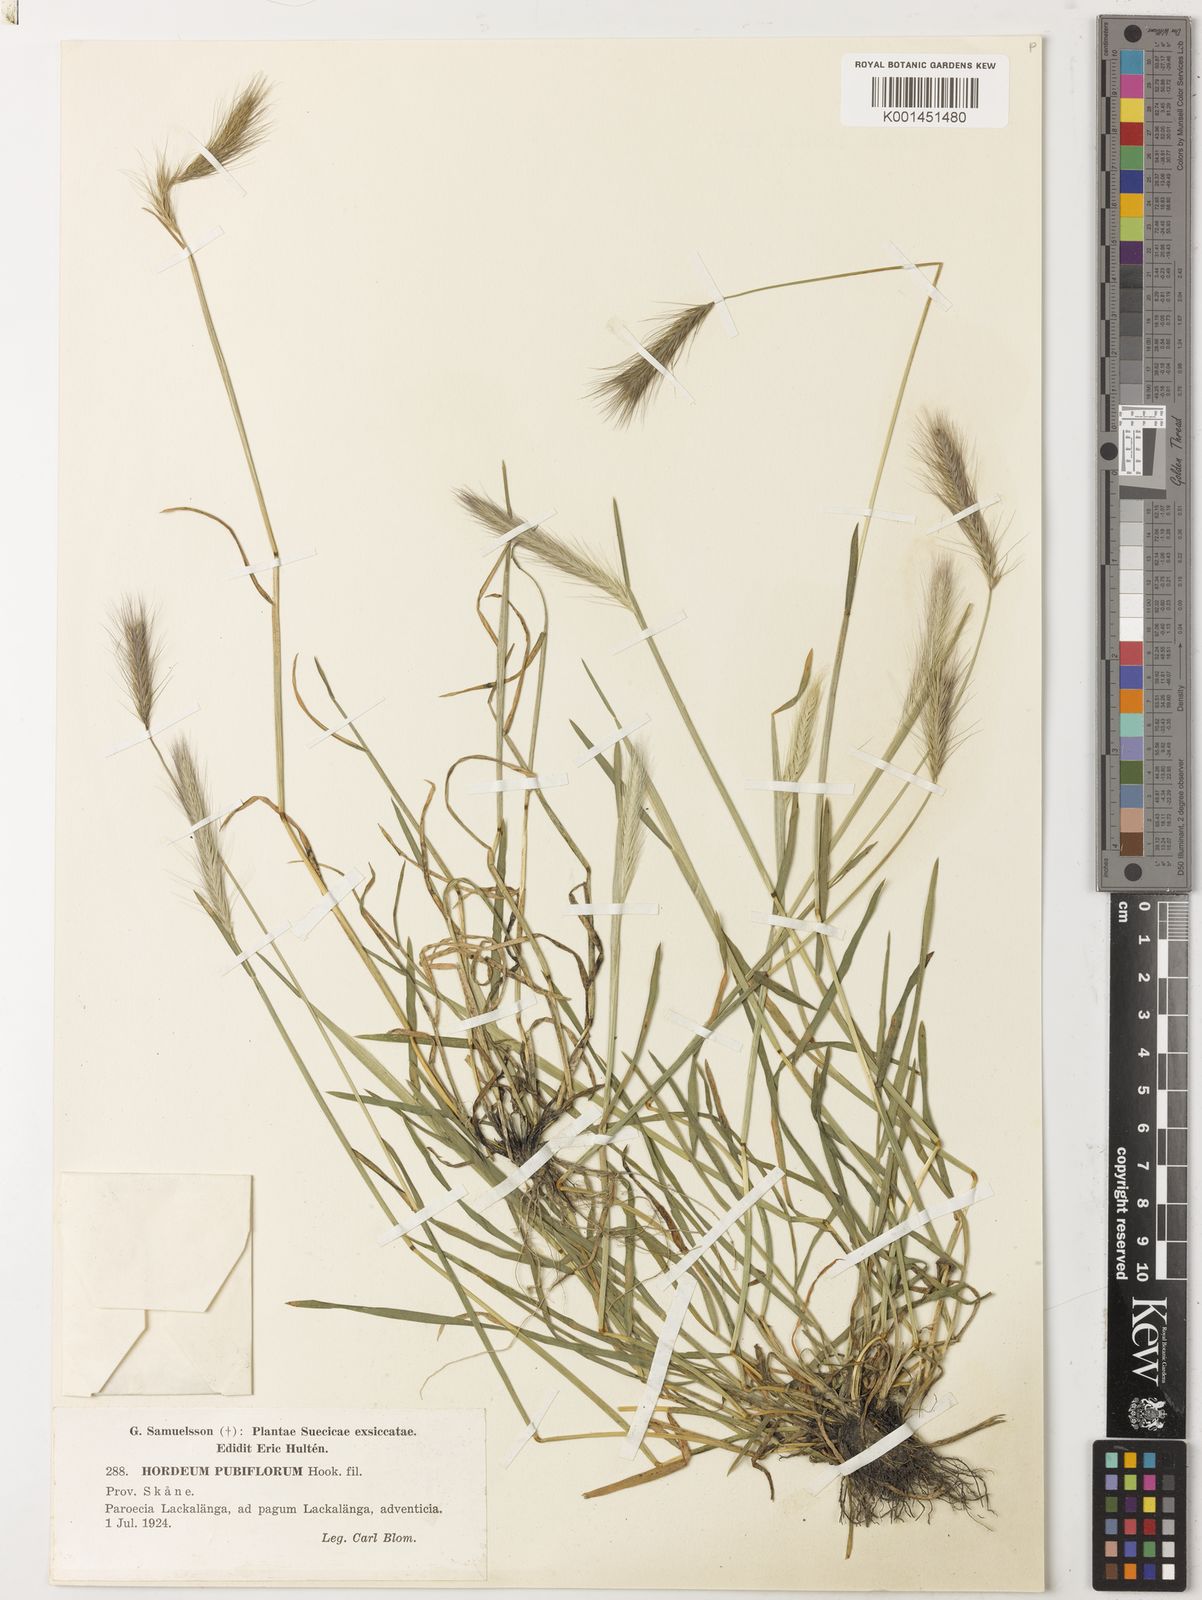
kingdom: Plantae
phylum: Tracheophyta
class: Liliopsida
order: Poales
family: Poaceae
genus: Hordeum
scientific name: Hordeum pubiflorum
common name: Antarctic barley
